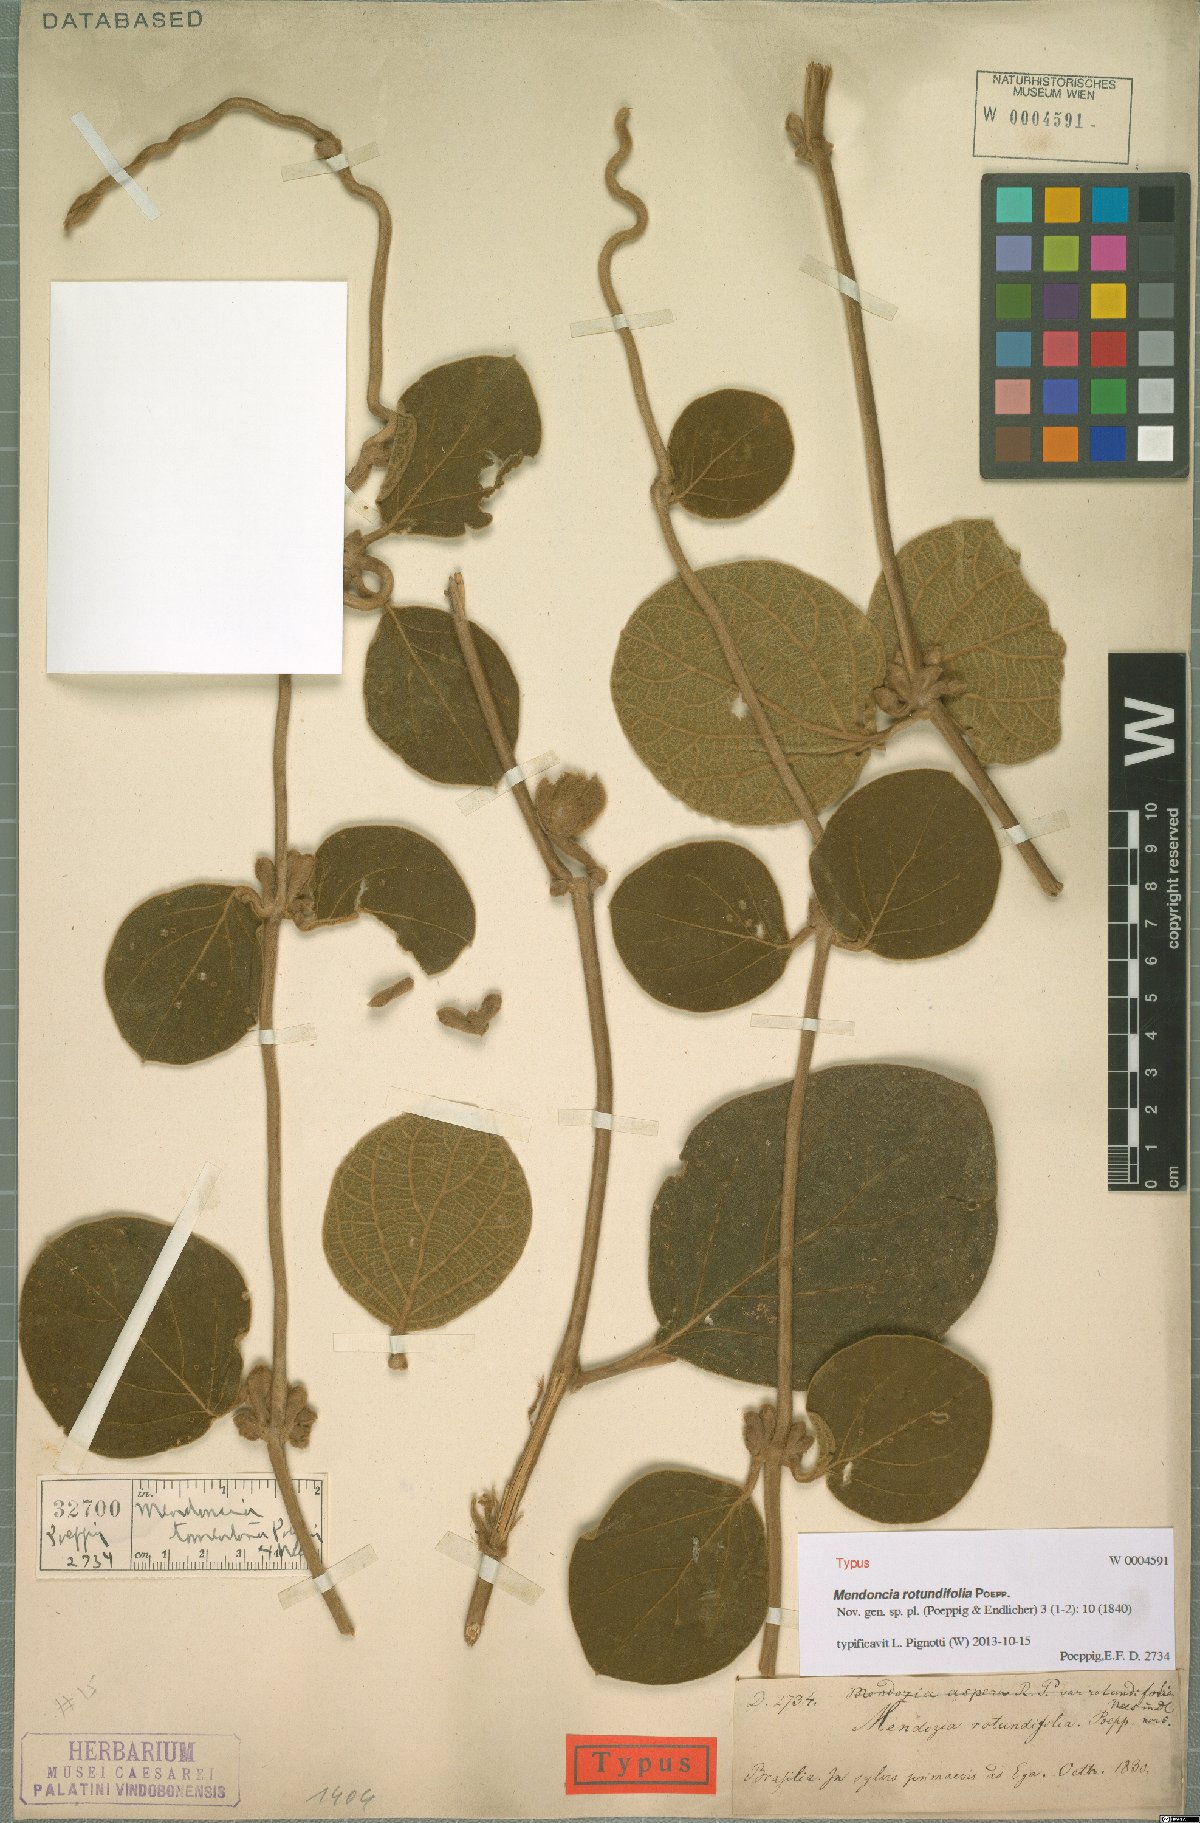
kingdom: Plantae
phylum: Tracheophyta
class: Magnoliopsida
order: Lamiales
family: Acanthaceae
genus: Mendoncia
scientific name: Mendoncia rotundifolia
